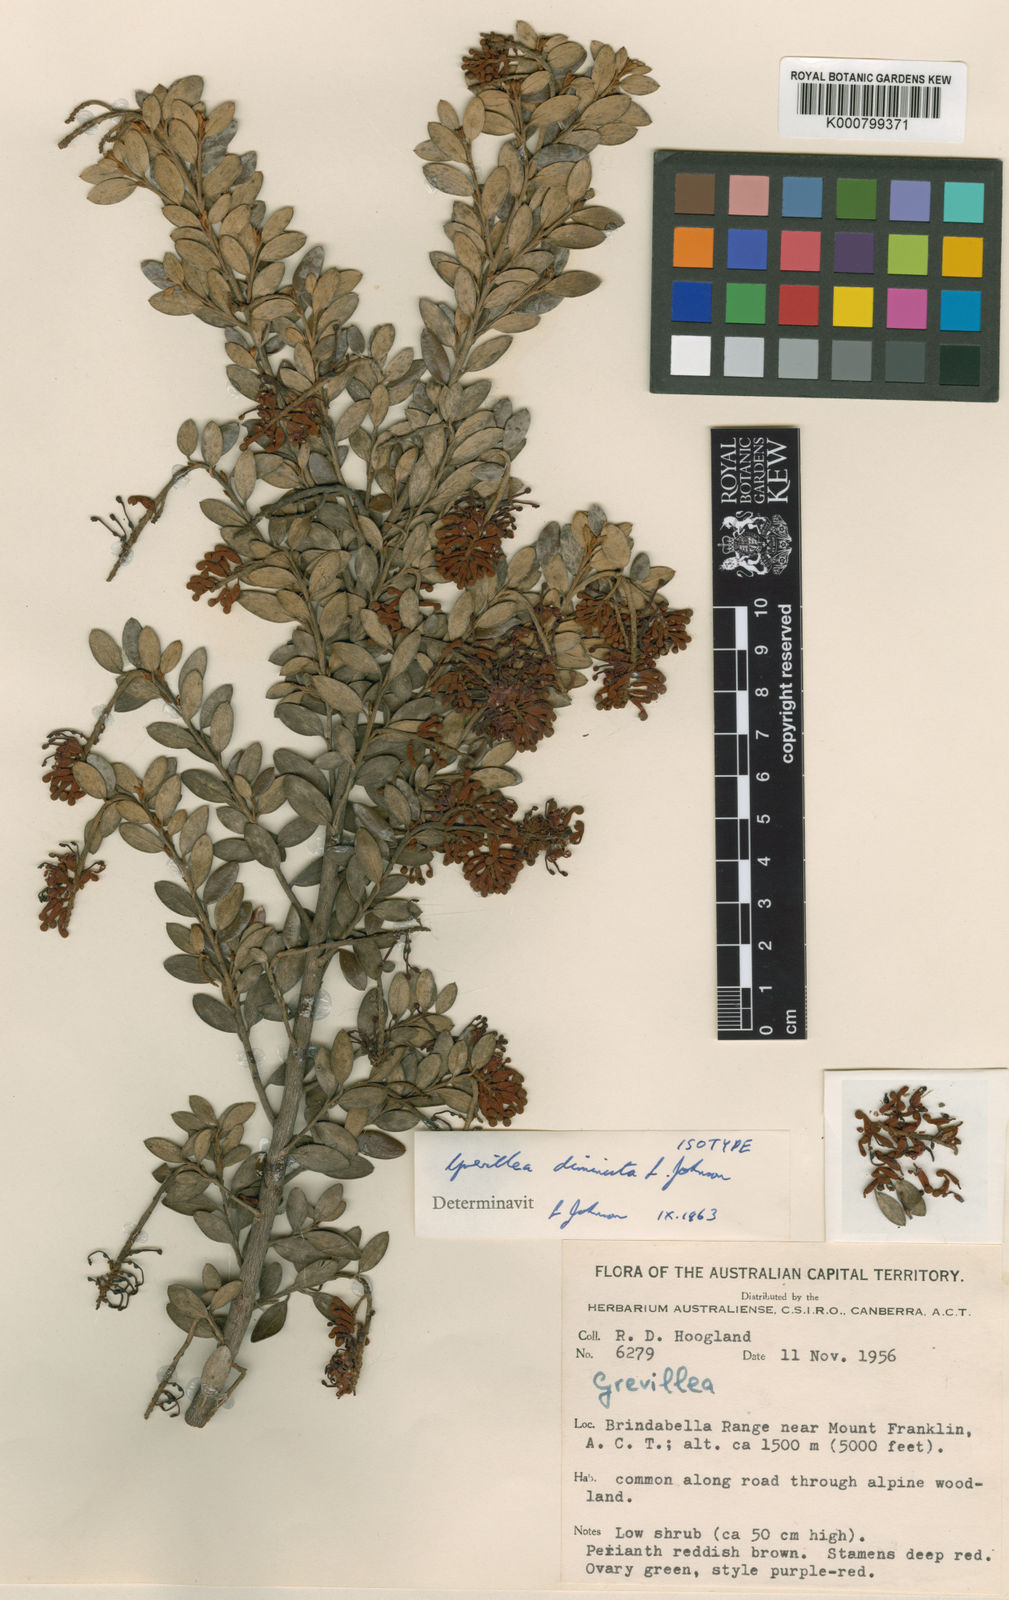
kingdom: Plantae
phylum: Tracheophyta
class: Magnoliopsida
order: Proteales
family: Proteaceae
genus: Grevillea
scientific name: Grevillea diminuta
